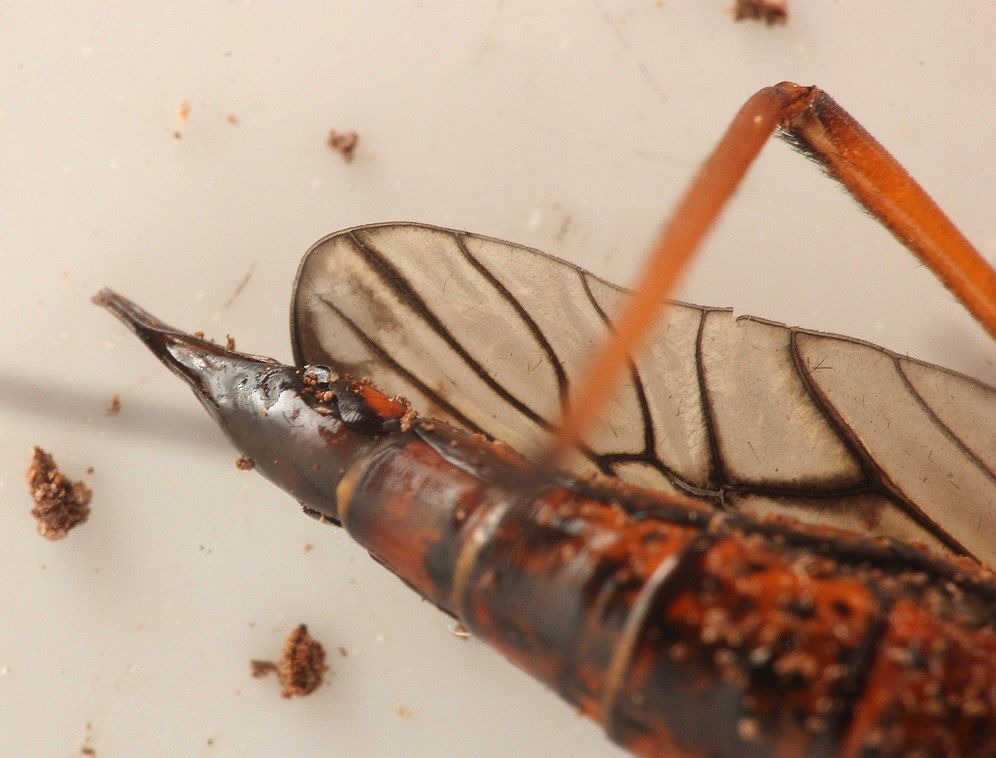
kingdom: Animalia
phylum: Arthropoda
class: Insecta
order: Diptera
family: Tipulidae
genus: Dictenidia
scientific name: Dictenidia bimaculata
